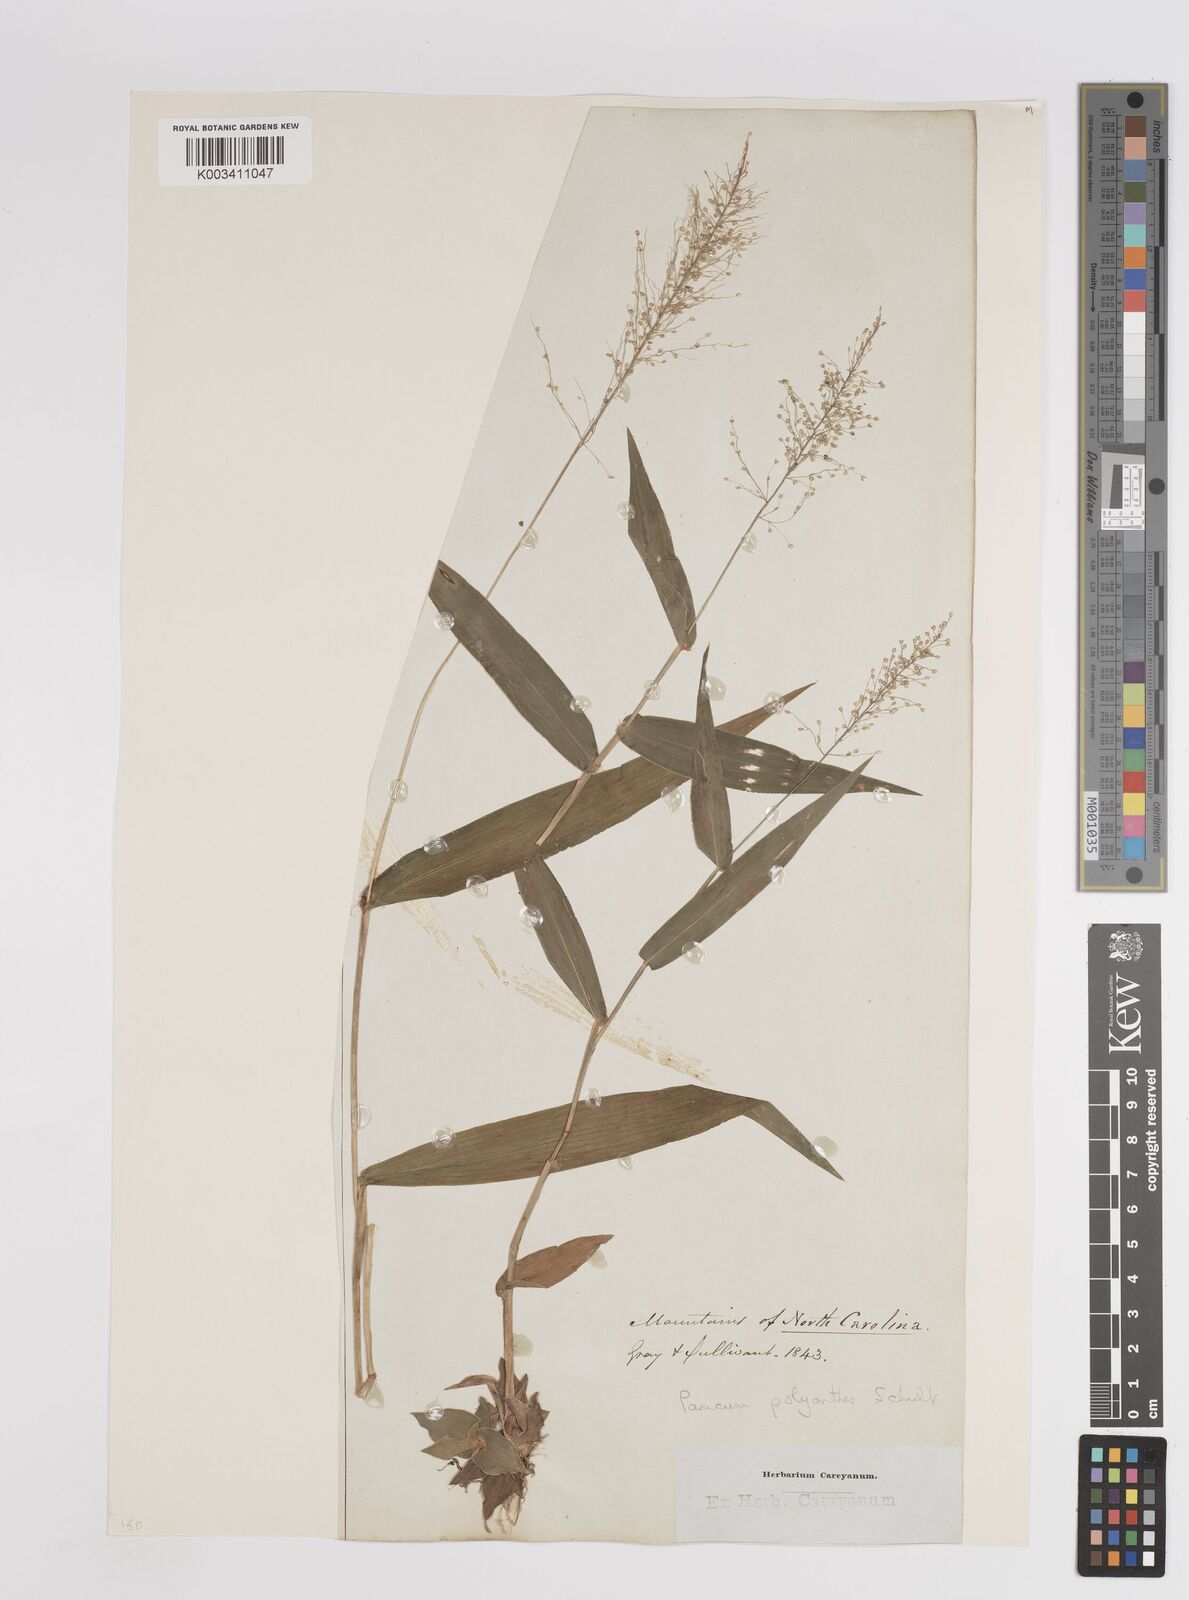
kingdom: Plantae
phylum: Tracheophyta
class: Liliopsida
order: Poales
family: Poaceae
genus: Dichanthelium
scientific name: Dichanthelium polyanthes
